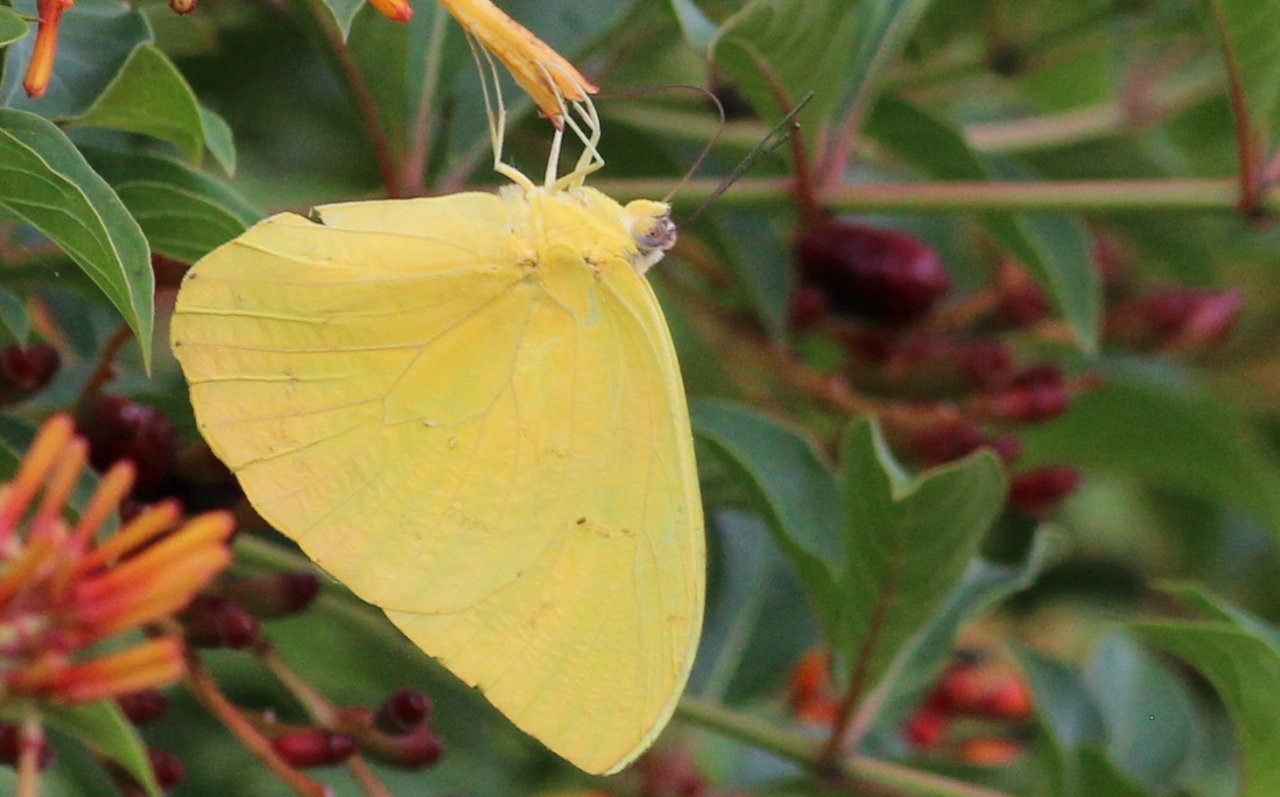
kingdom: Animalia
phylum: Arthropoda
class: Insecta
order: Lepidoptera
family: Pieridae
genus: Phoebis
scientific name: Phoebis sennae
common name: Cloudless Sulphur
